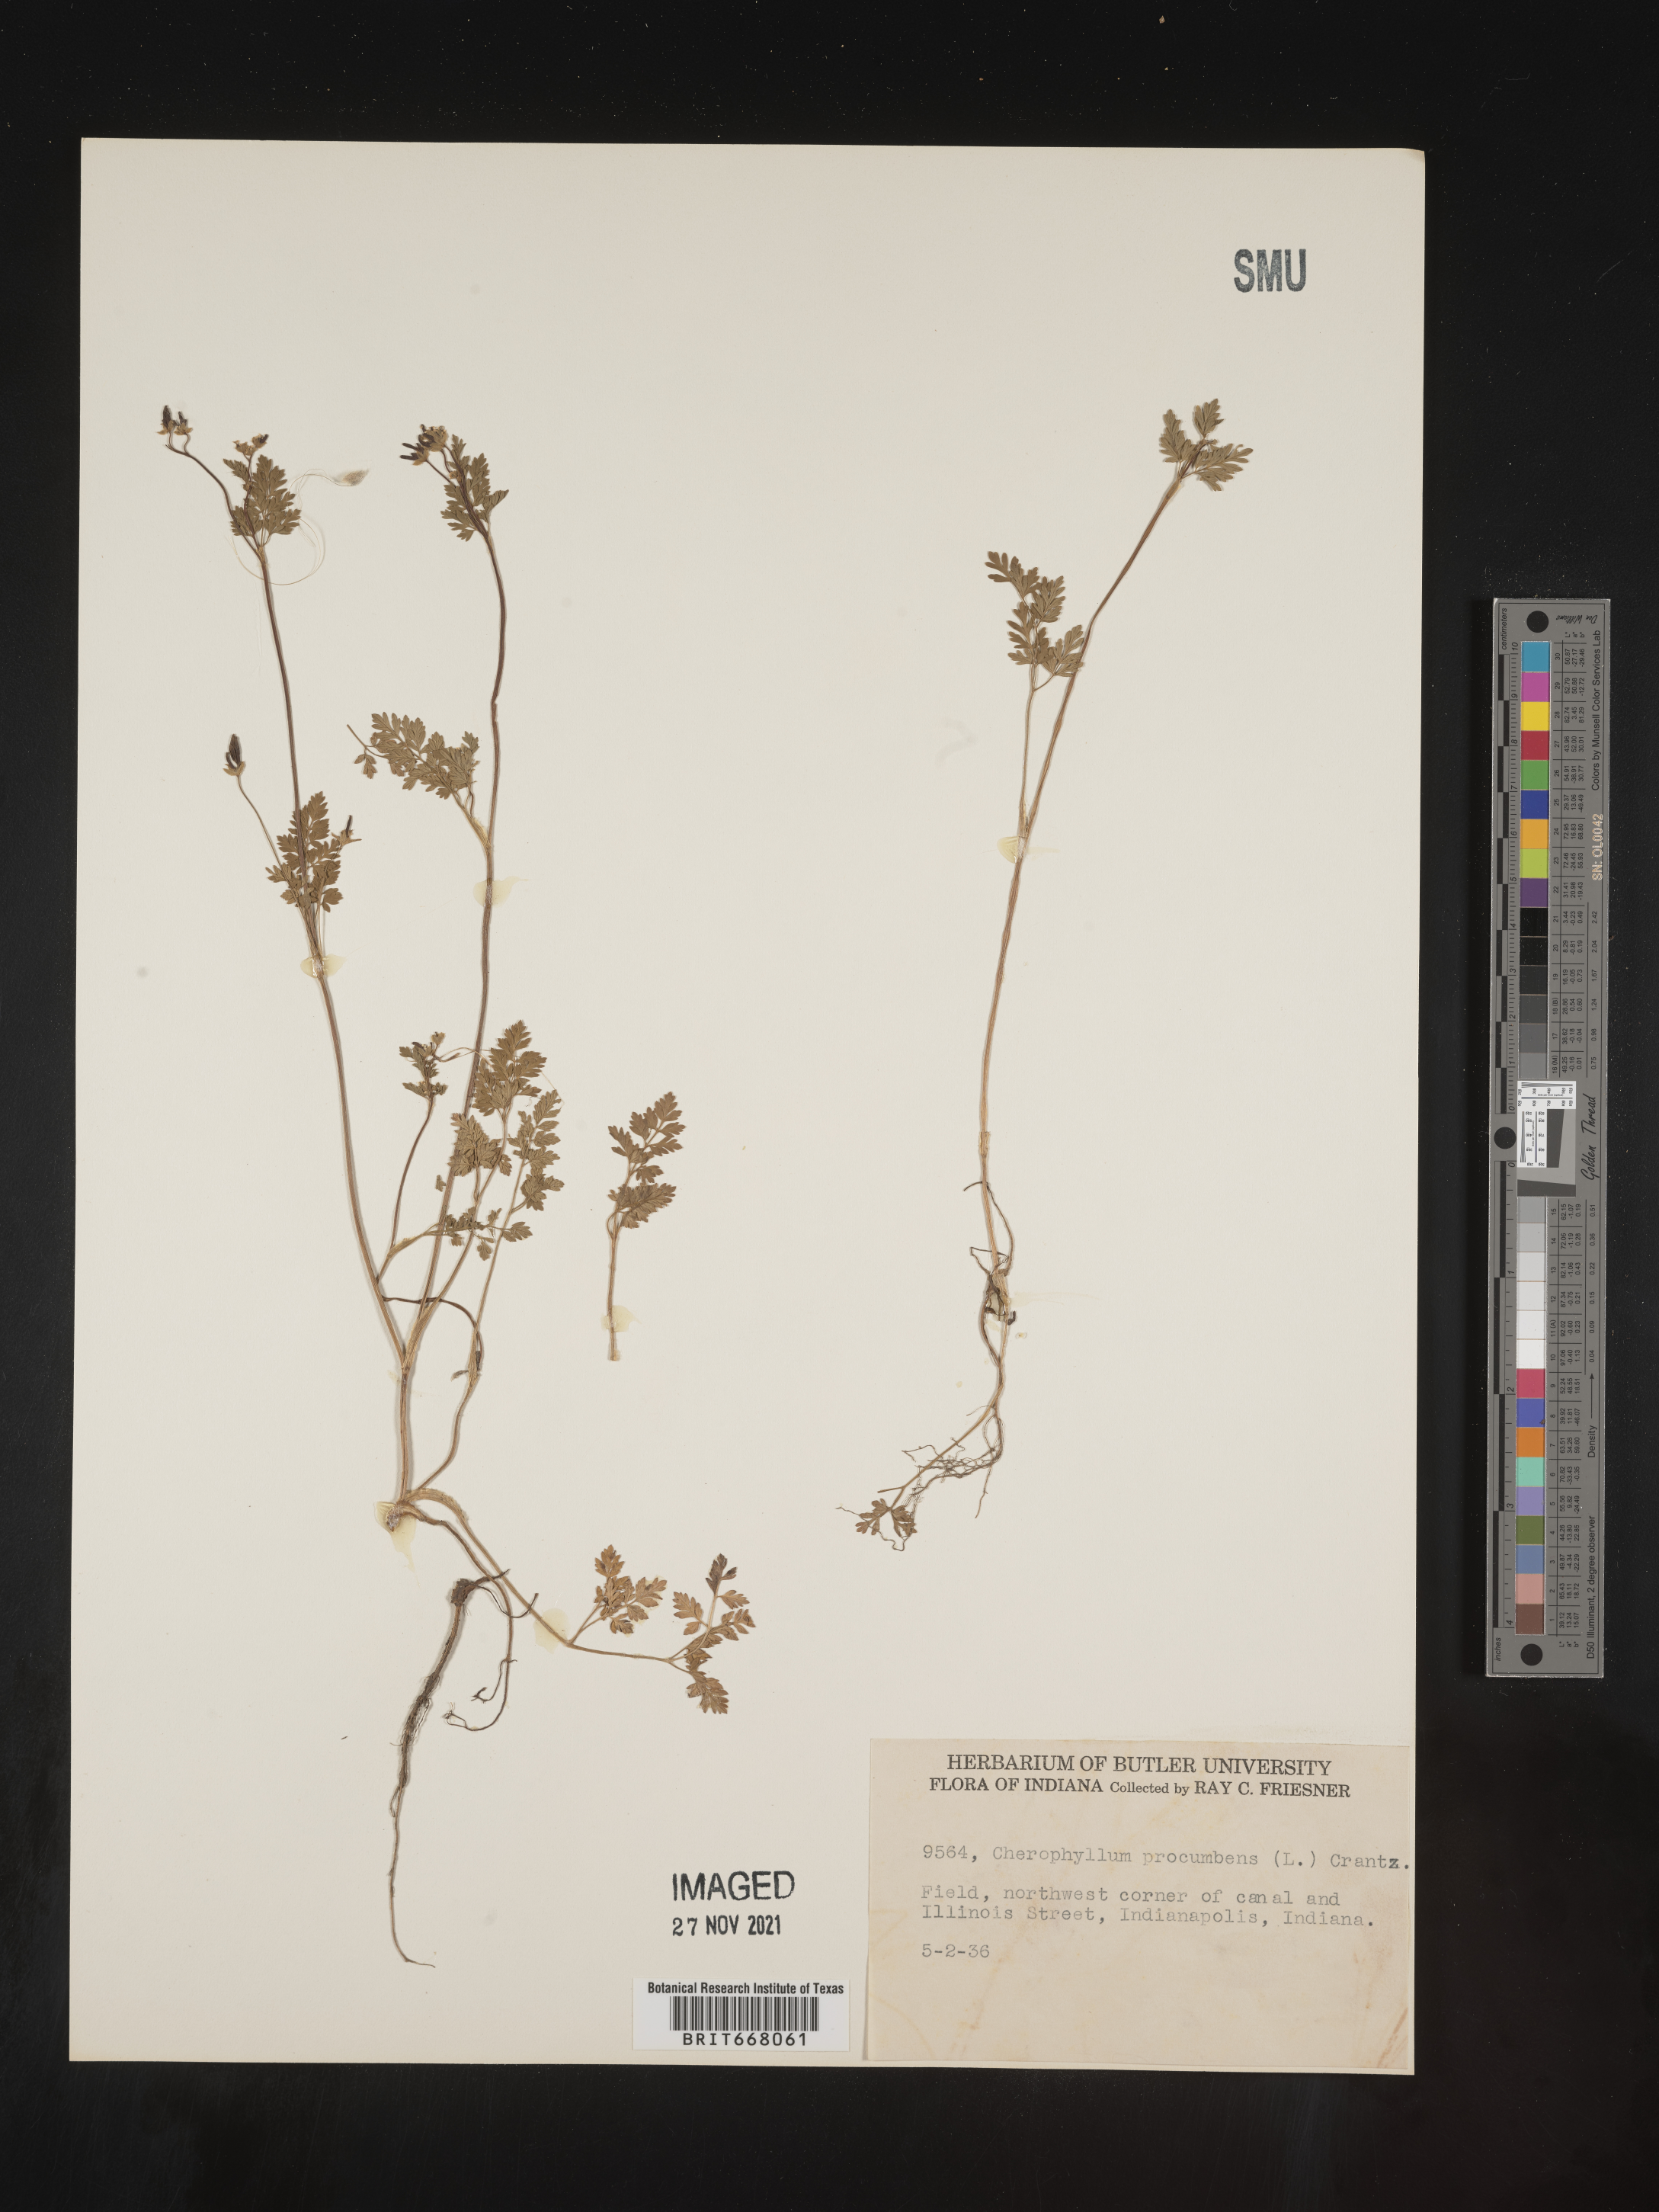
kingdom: Plantae
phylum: Tracheophyta
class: Magnoliopsida
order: Apiales
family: Apiaceae
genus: Chaerophyllum
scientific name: Chaerophyllum procumbens
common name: Spreading chervil
